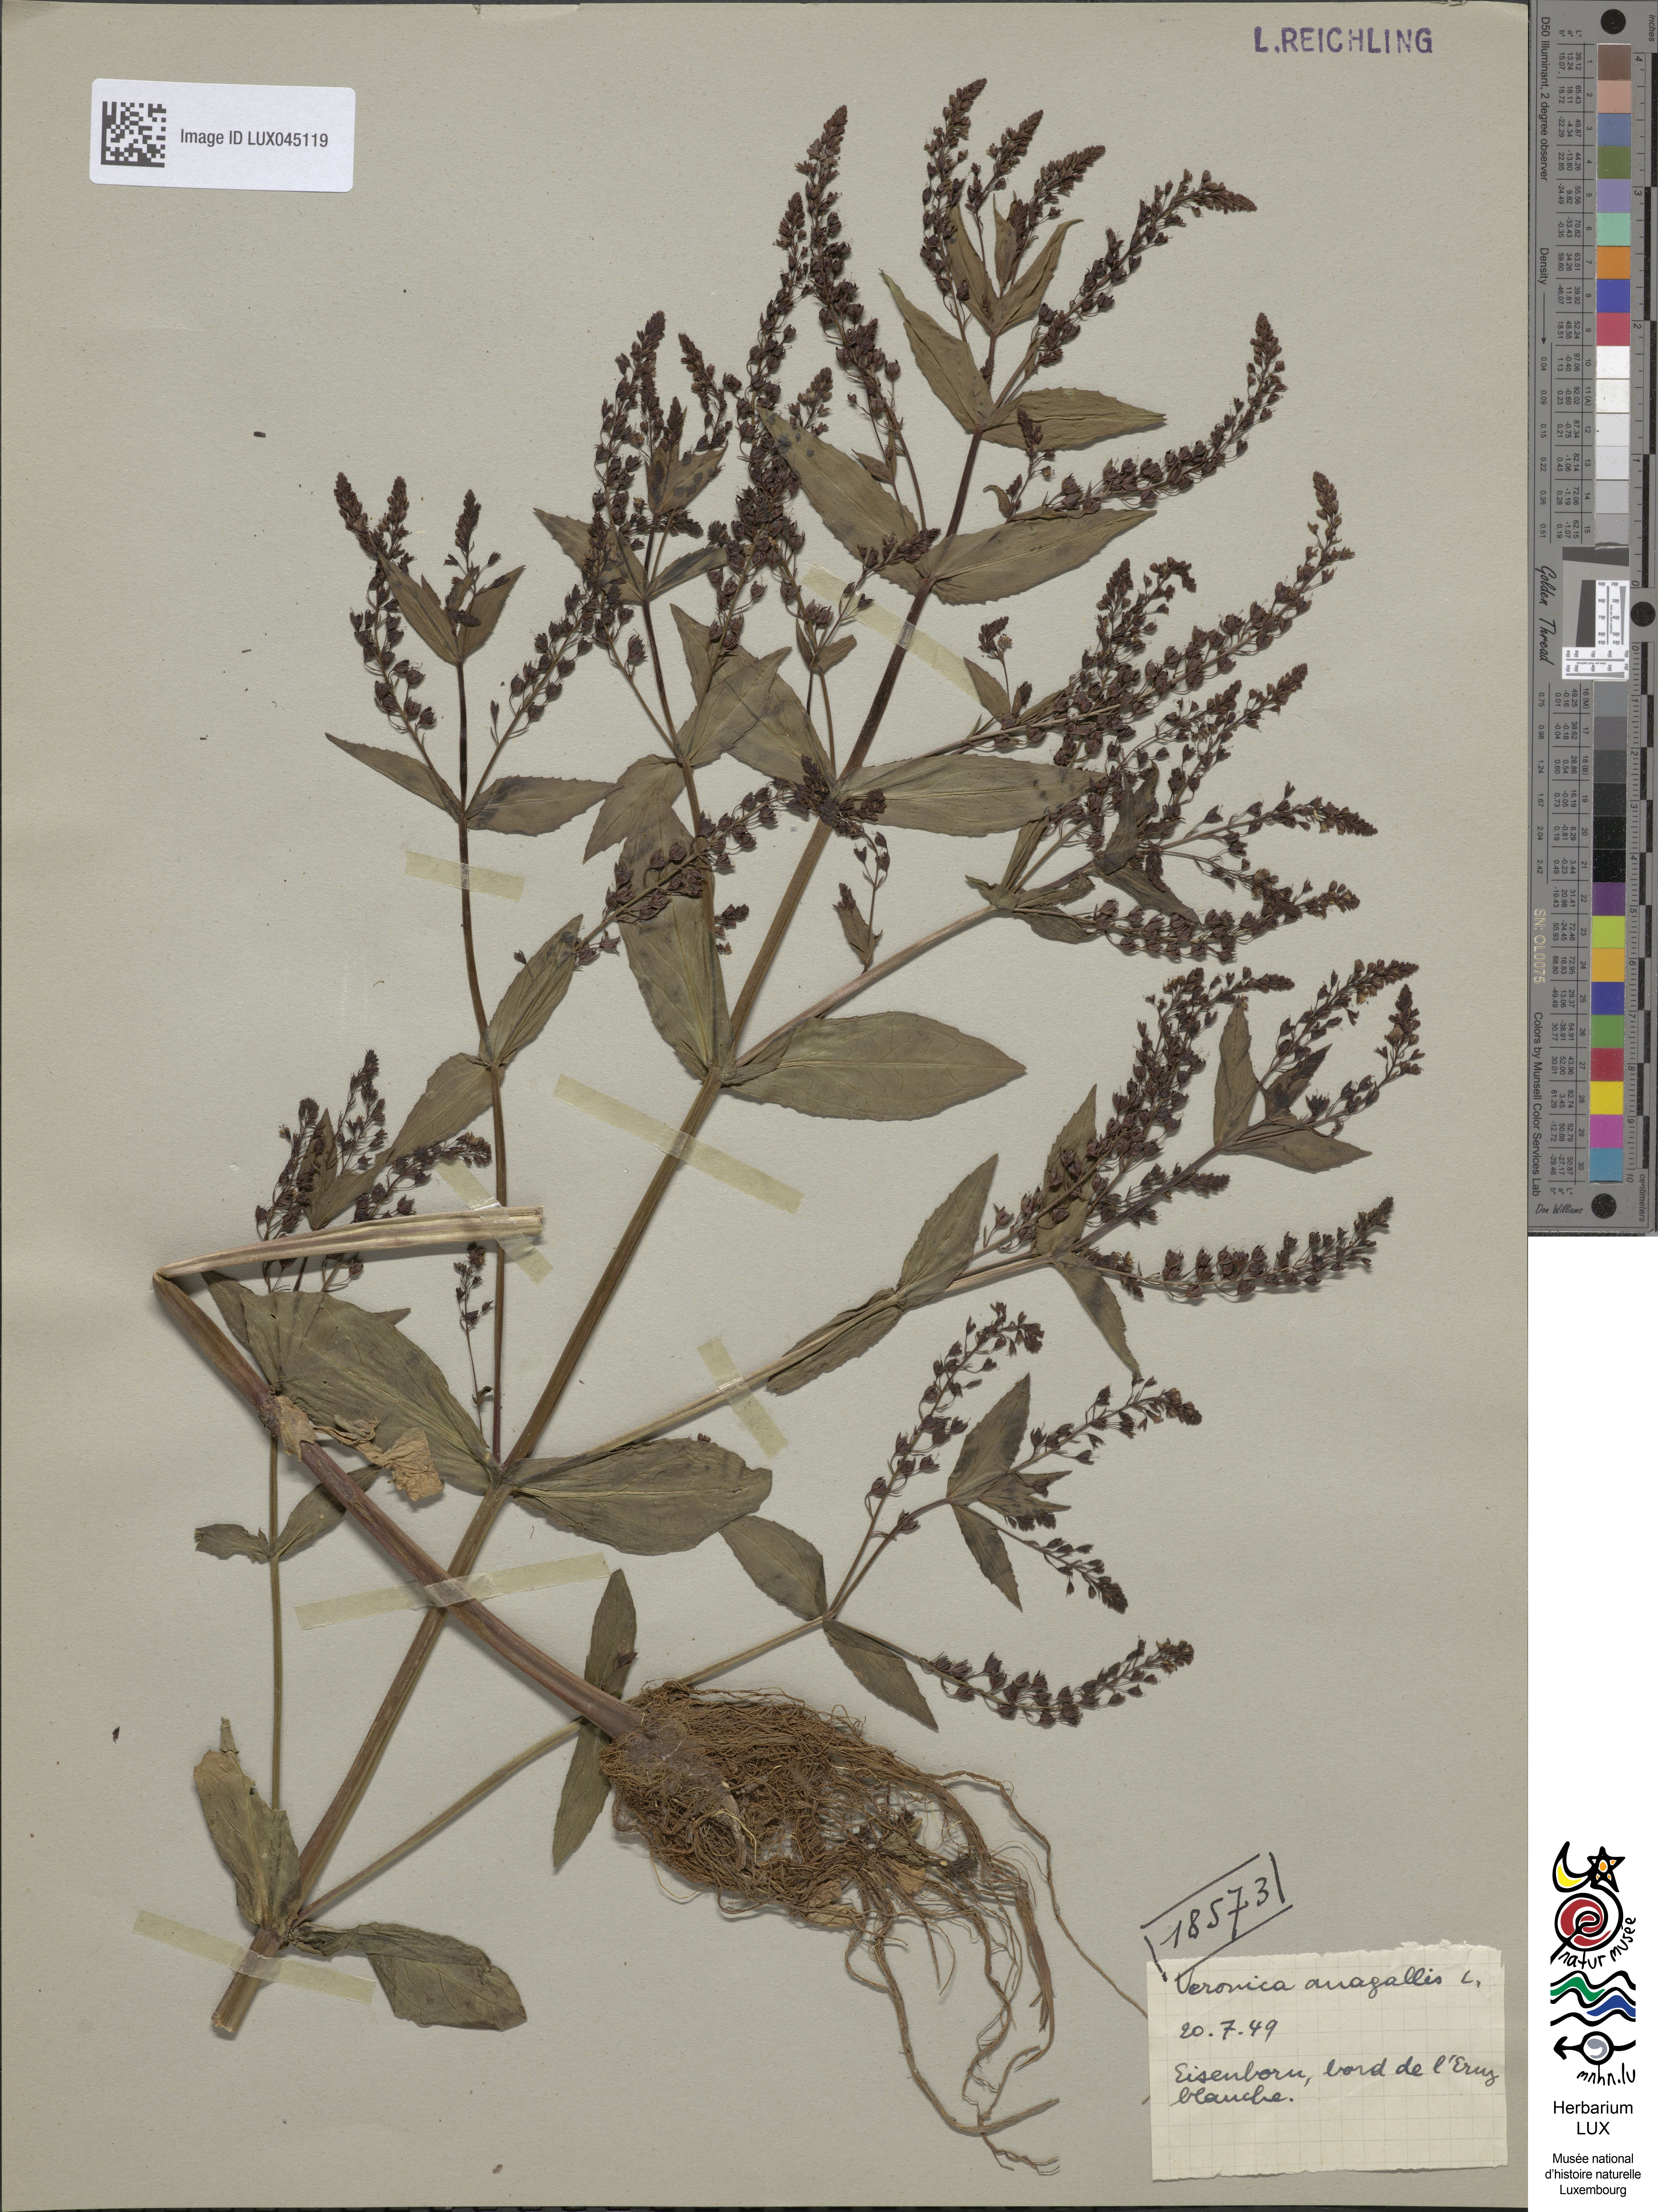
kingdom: Plantae
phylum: Tracheophyta
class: Magnoliopsida
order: Lamiales
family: Plantaginaceae
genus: Veronica
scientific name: Veronica anagallis-aquatica
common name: Water speedwell
